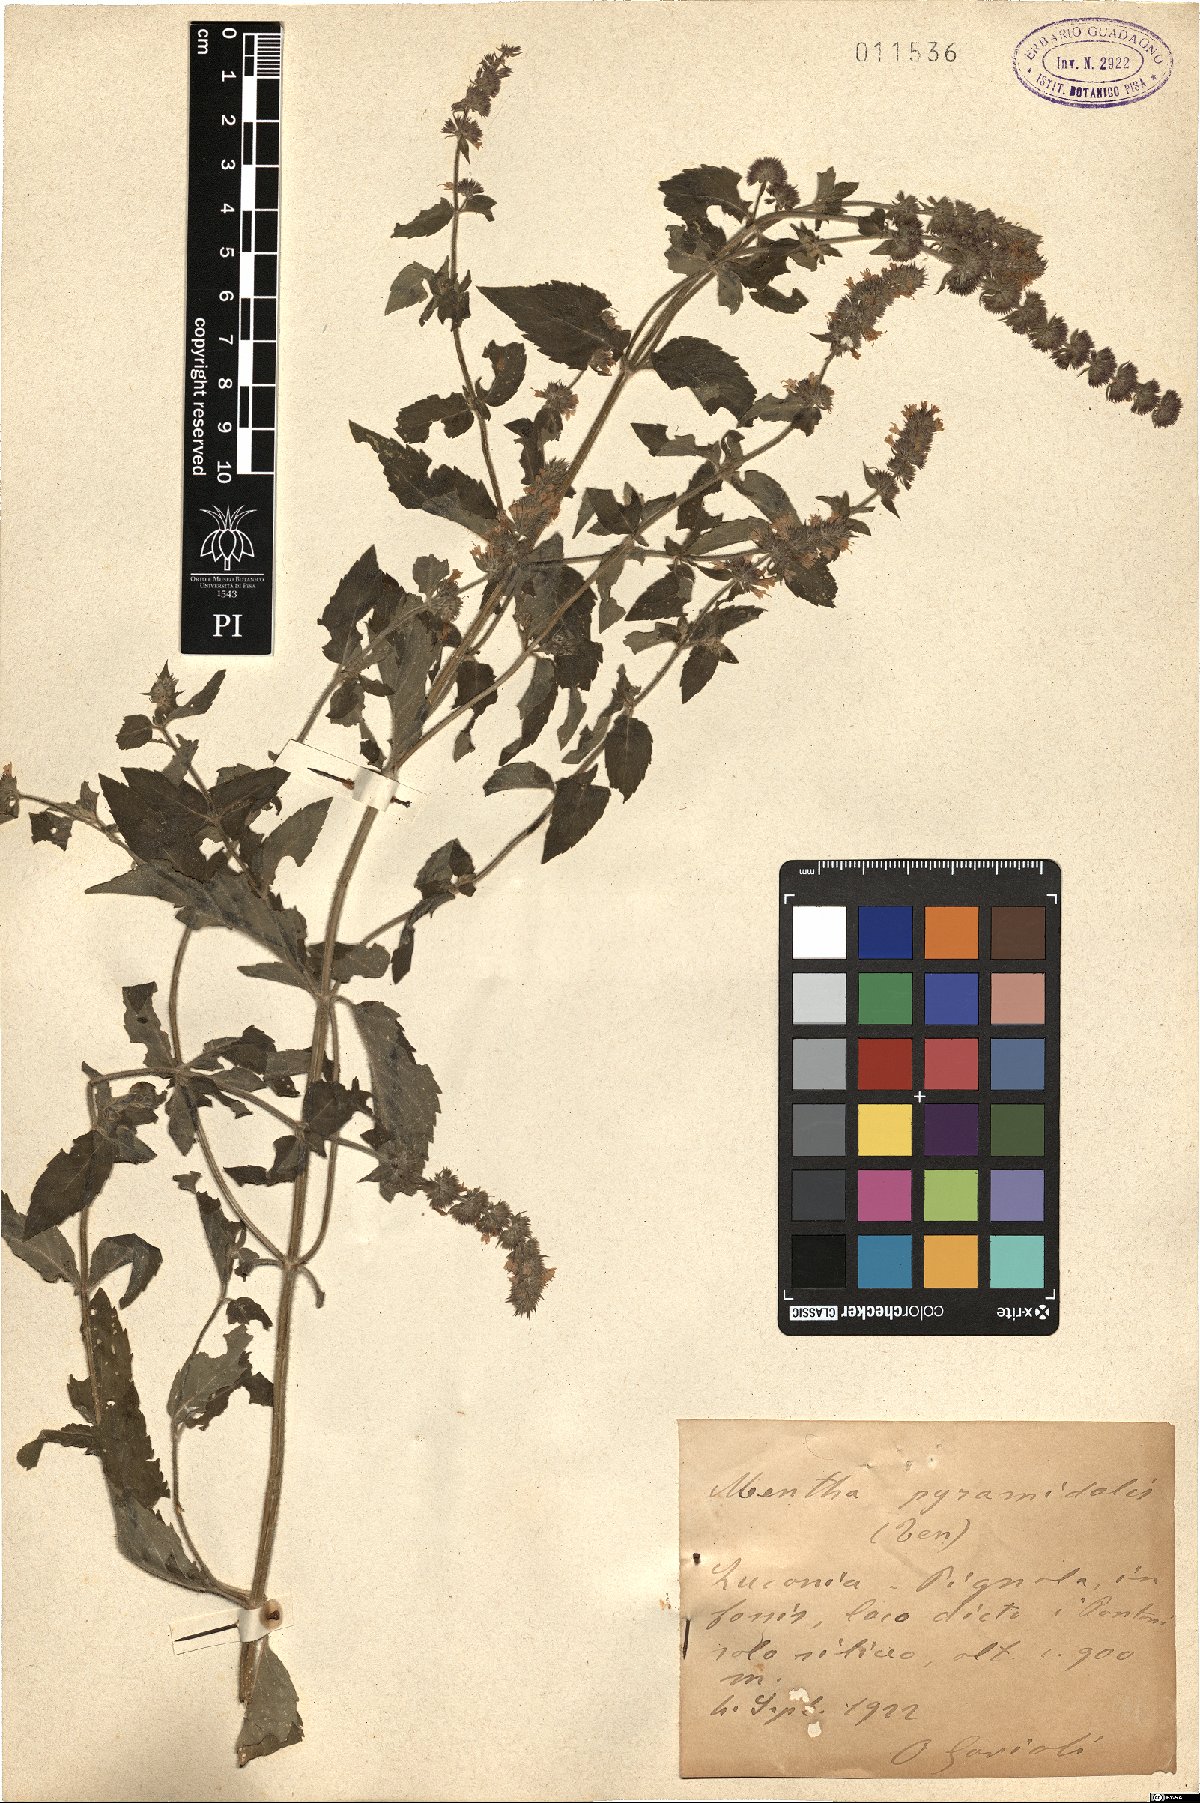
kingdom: Plantae
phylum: Tracheophyta
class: Magnoliopsida
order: Lamiales
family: Lamiaceae
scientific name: Lamiaceae
